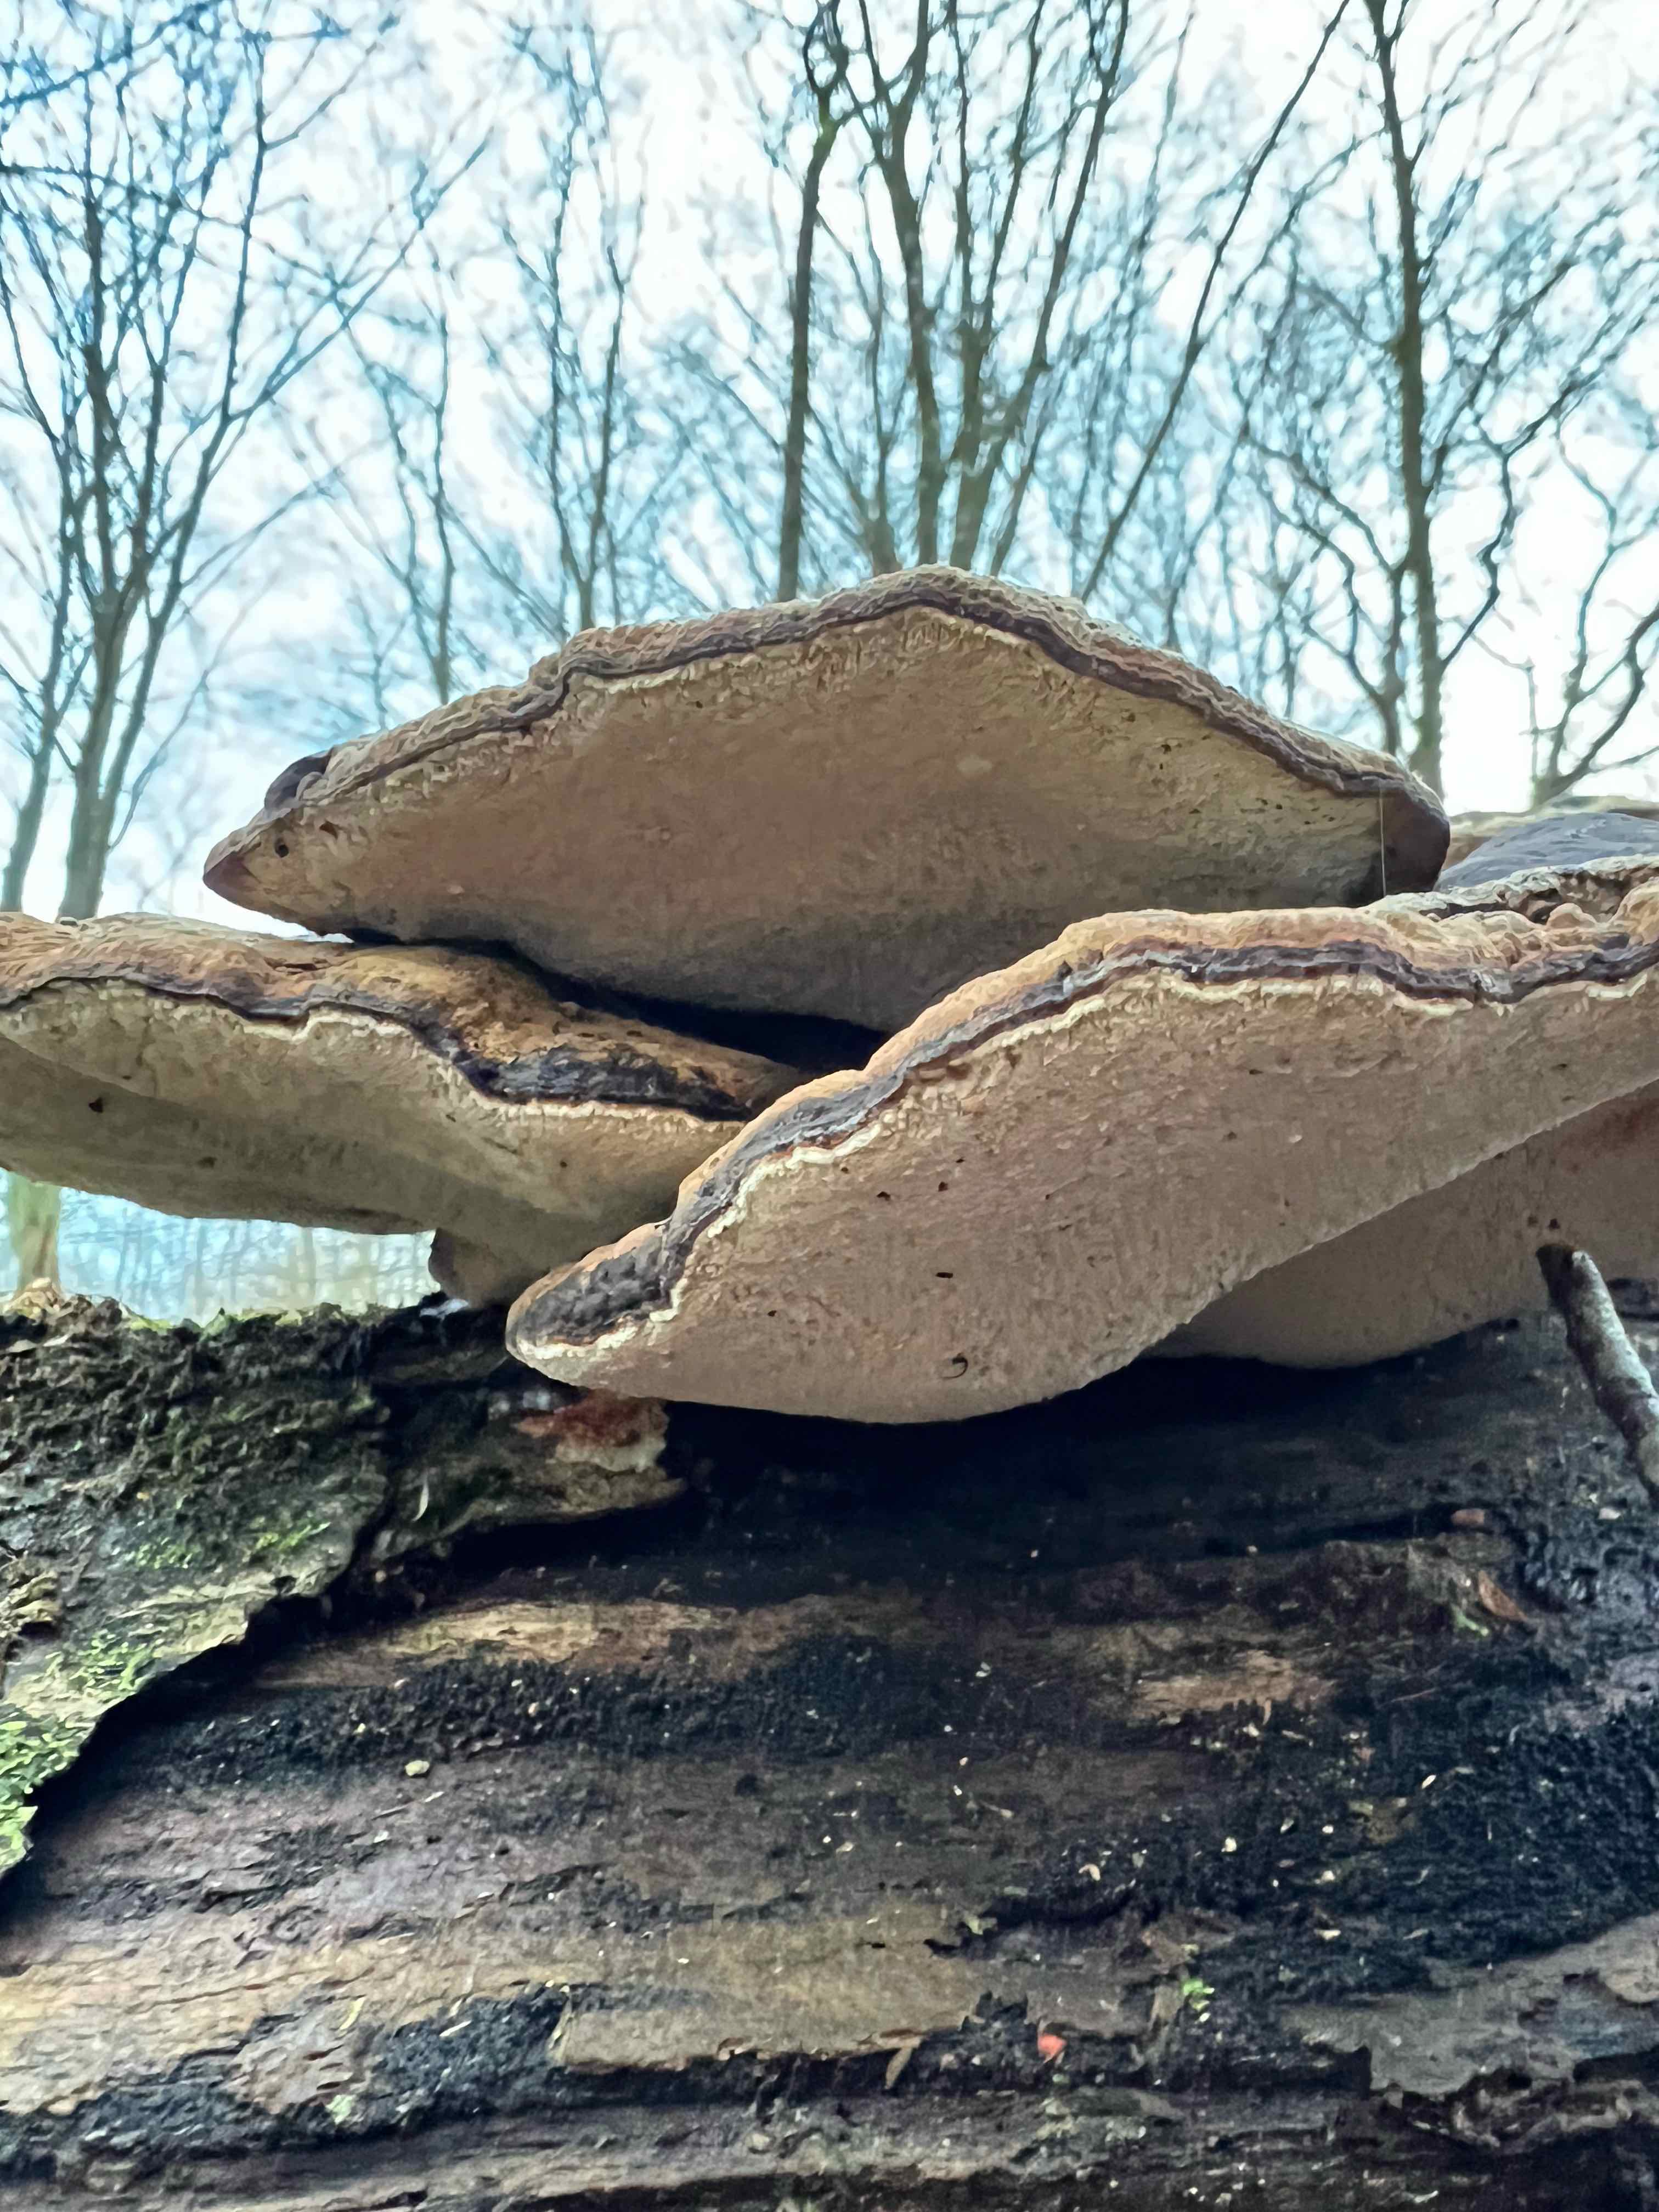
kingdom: Fungi
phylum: Basidiomycota
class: Agaricomycetes
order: Polyporales
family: Ischnodermataceae
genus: Ischnoderma
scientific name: Ischnoderma resinosum
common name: løv-tjæreporesvamp
